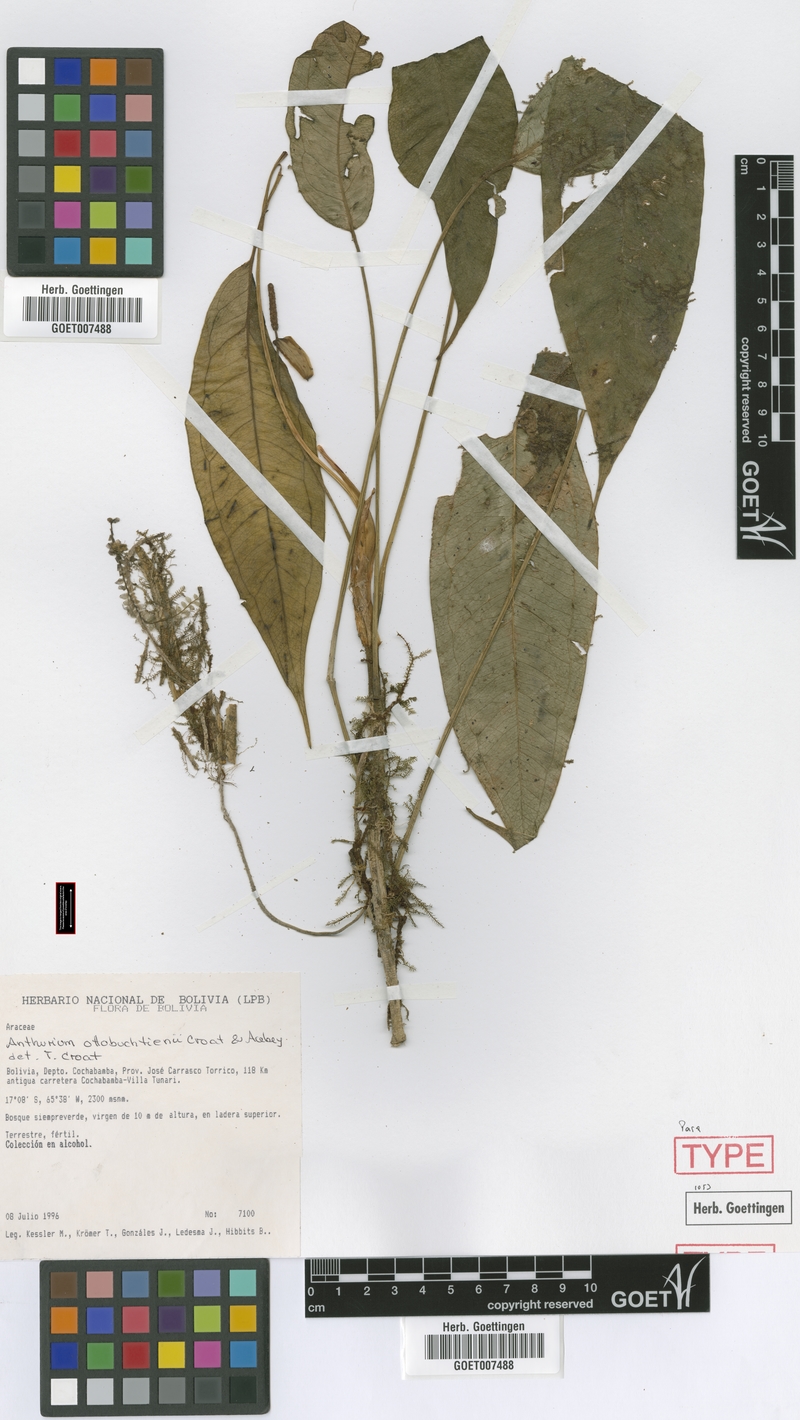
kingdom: Plantae
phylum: Tracheophyta
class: Liliopsida
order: Alismatales
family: Araceae
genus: Anthurium
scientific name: Anthurium ottobuchtienii
